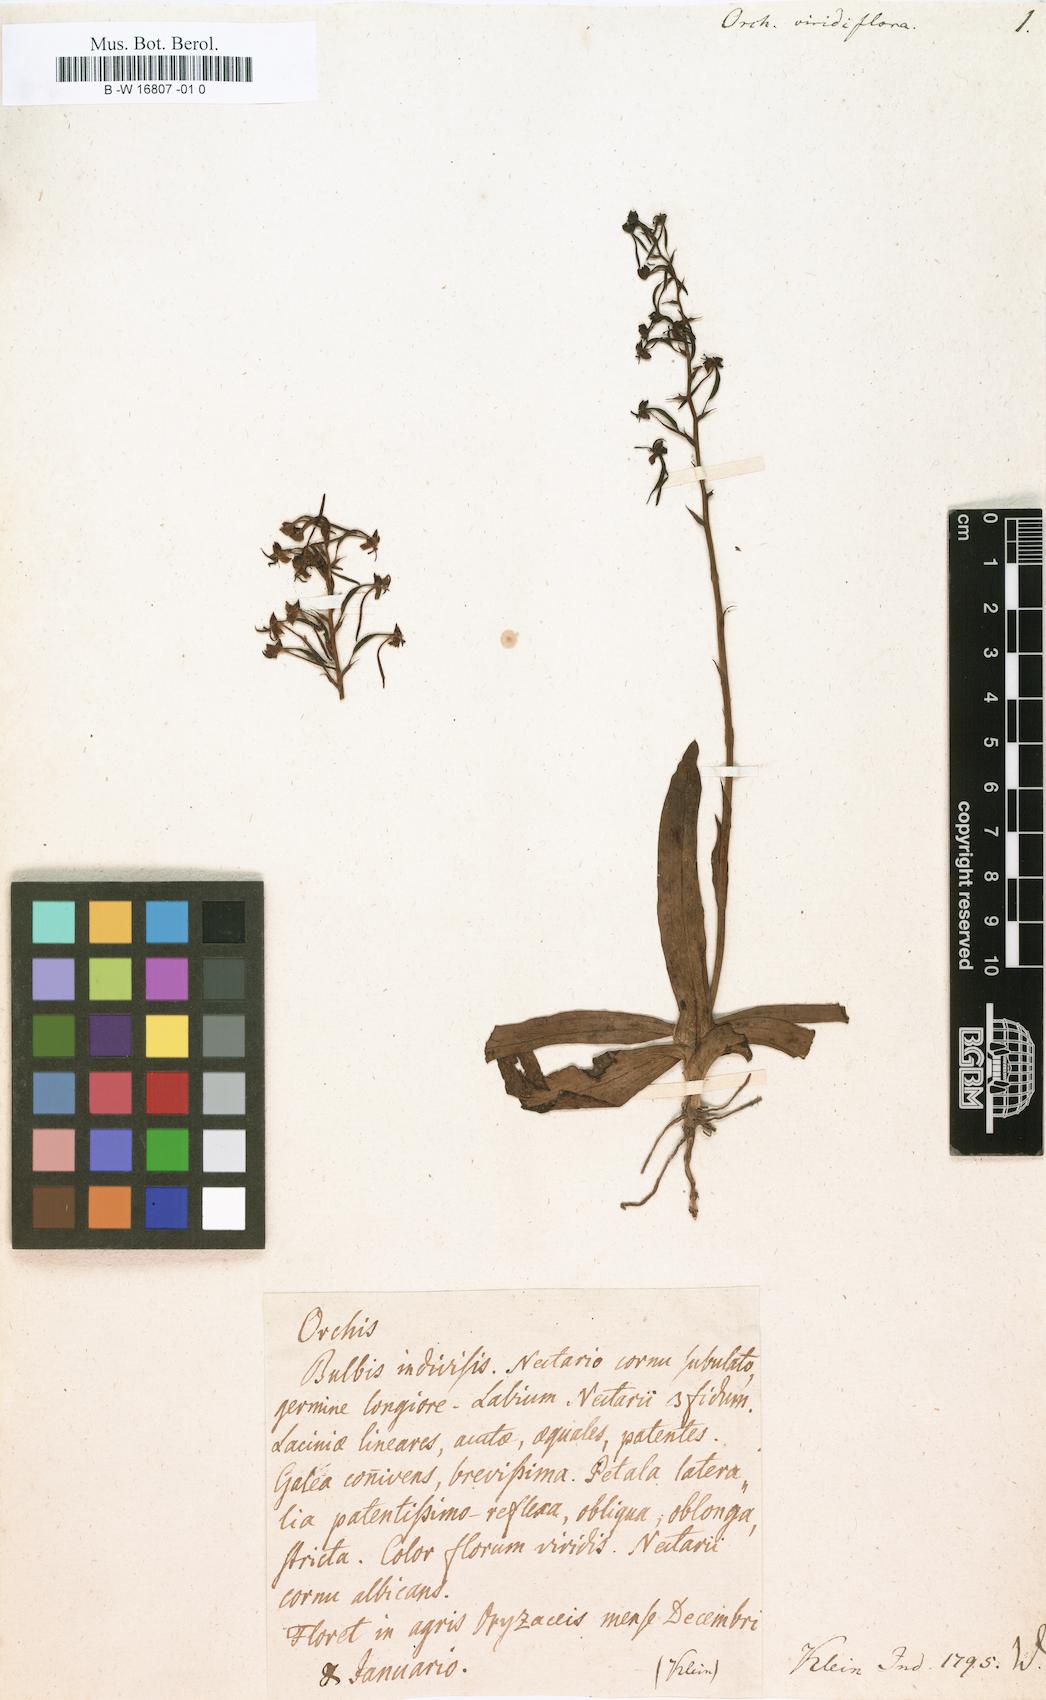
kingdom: Plantae
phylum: Tracheophyta
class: Liliopsida
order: Asparagales
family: Orchidaceae
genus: Orchis
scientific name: Orchis viridiflora
